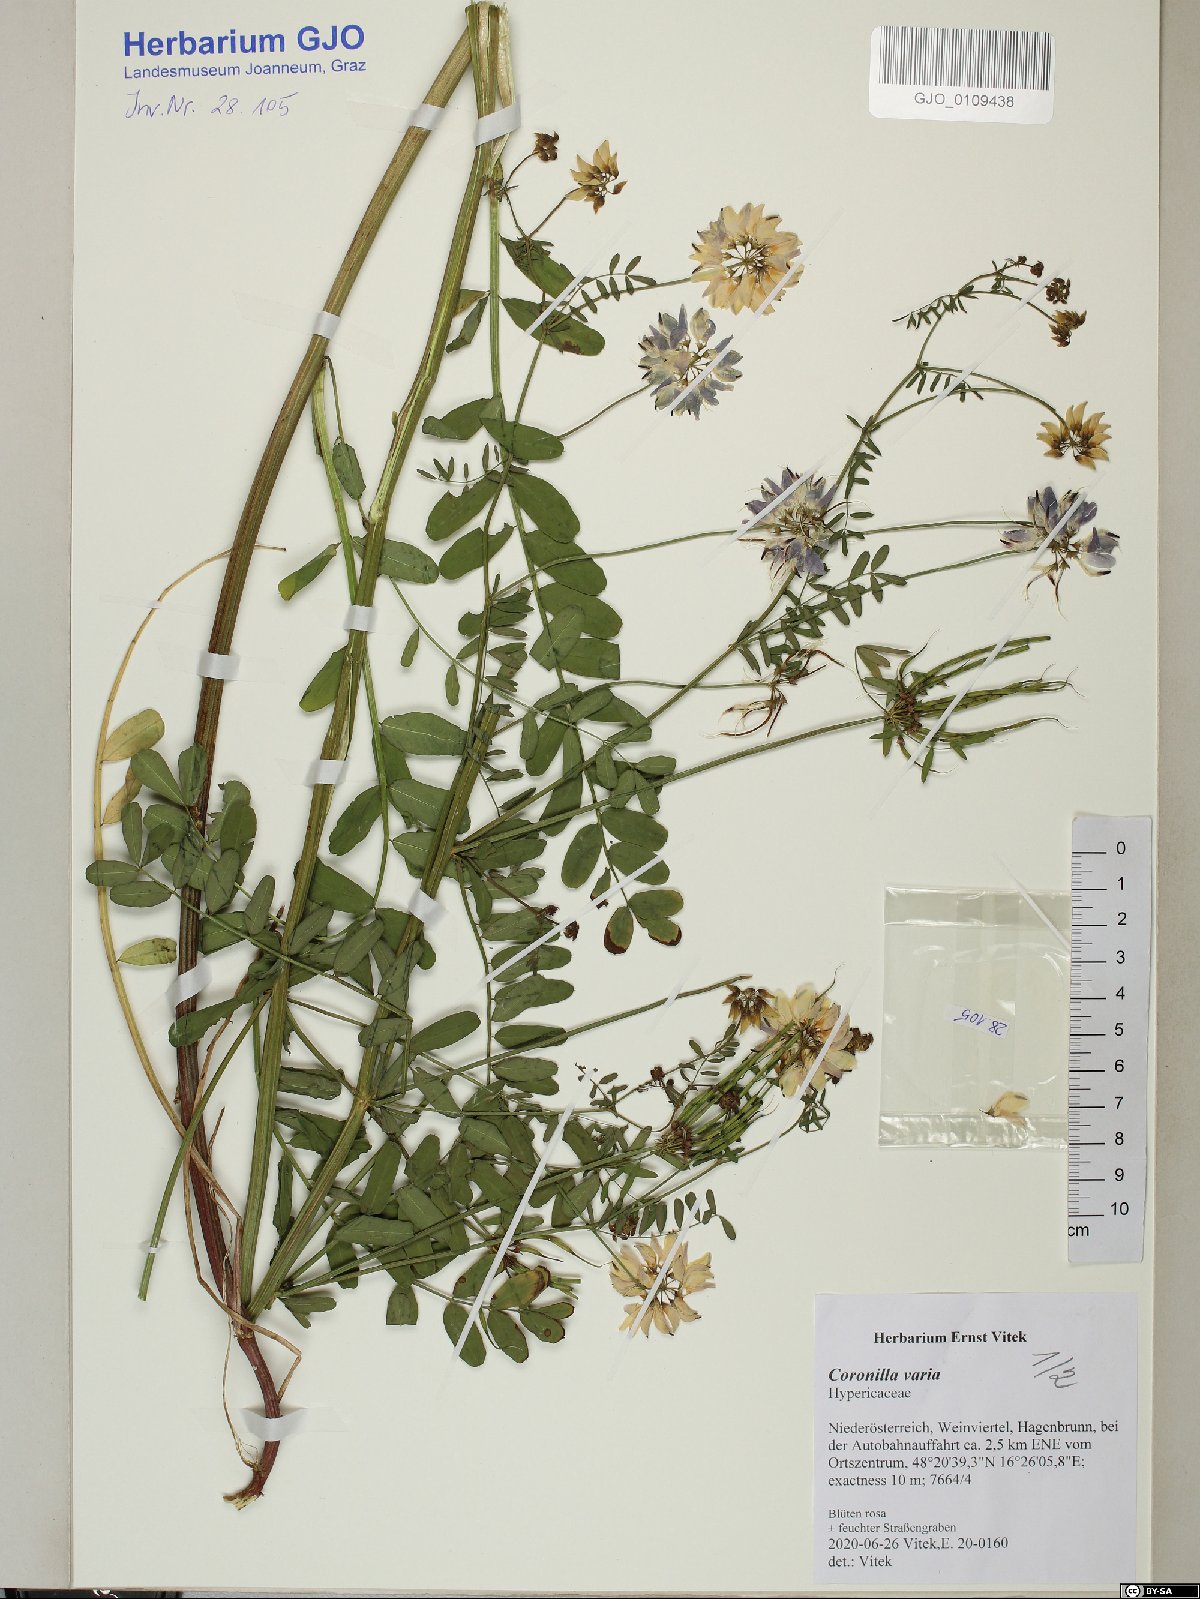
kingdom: Plantae
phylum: Tracheophyta
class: Magnoliopsida
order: Fabales
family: Fabaceae
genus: Coronilla
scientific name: Coronilla varia
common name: Crownvetch
